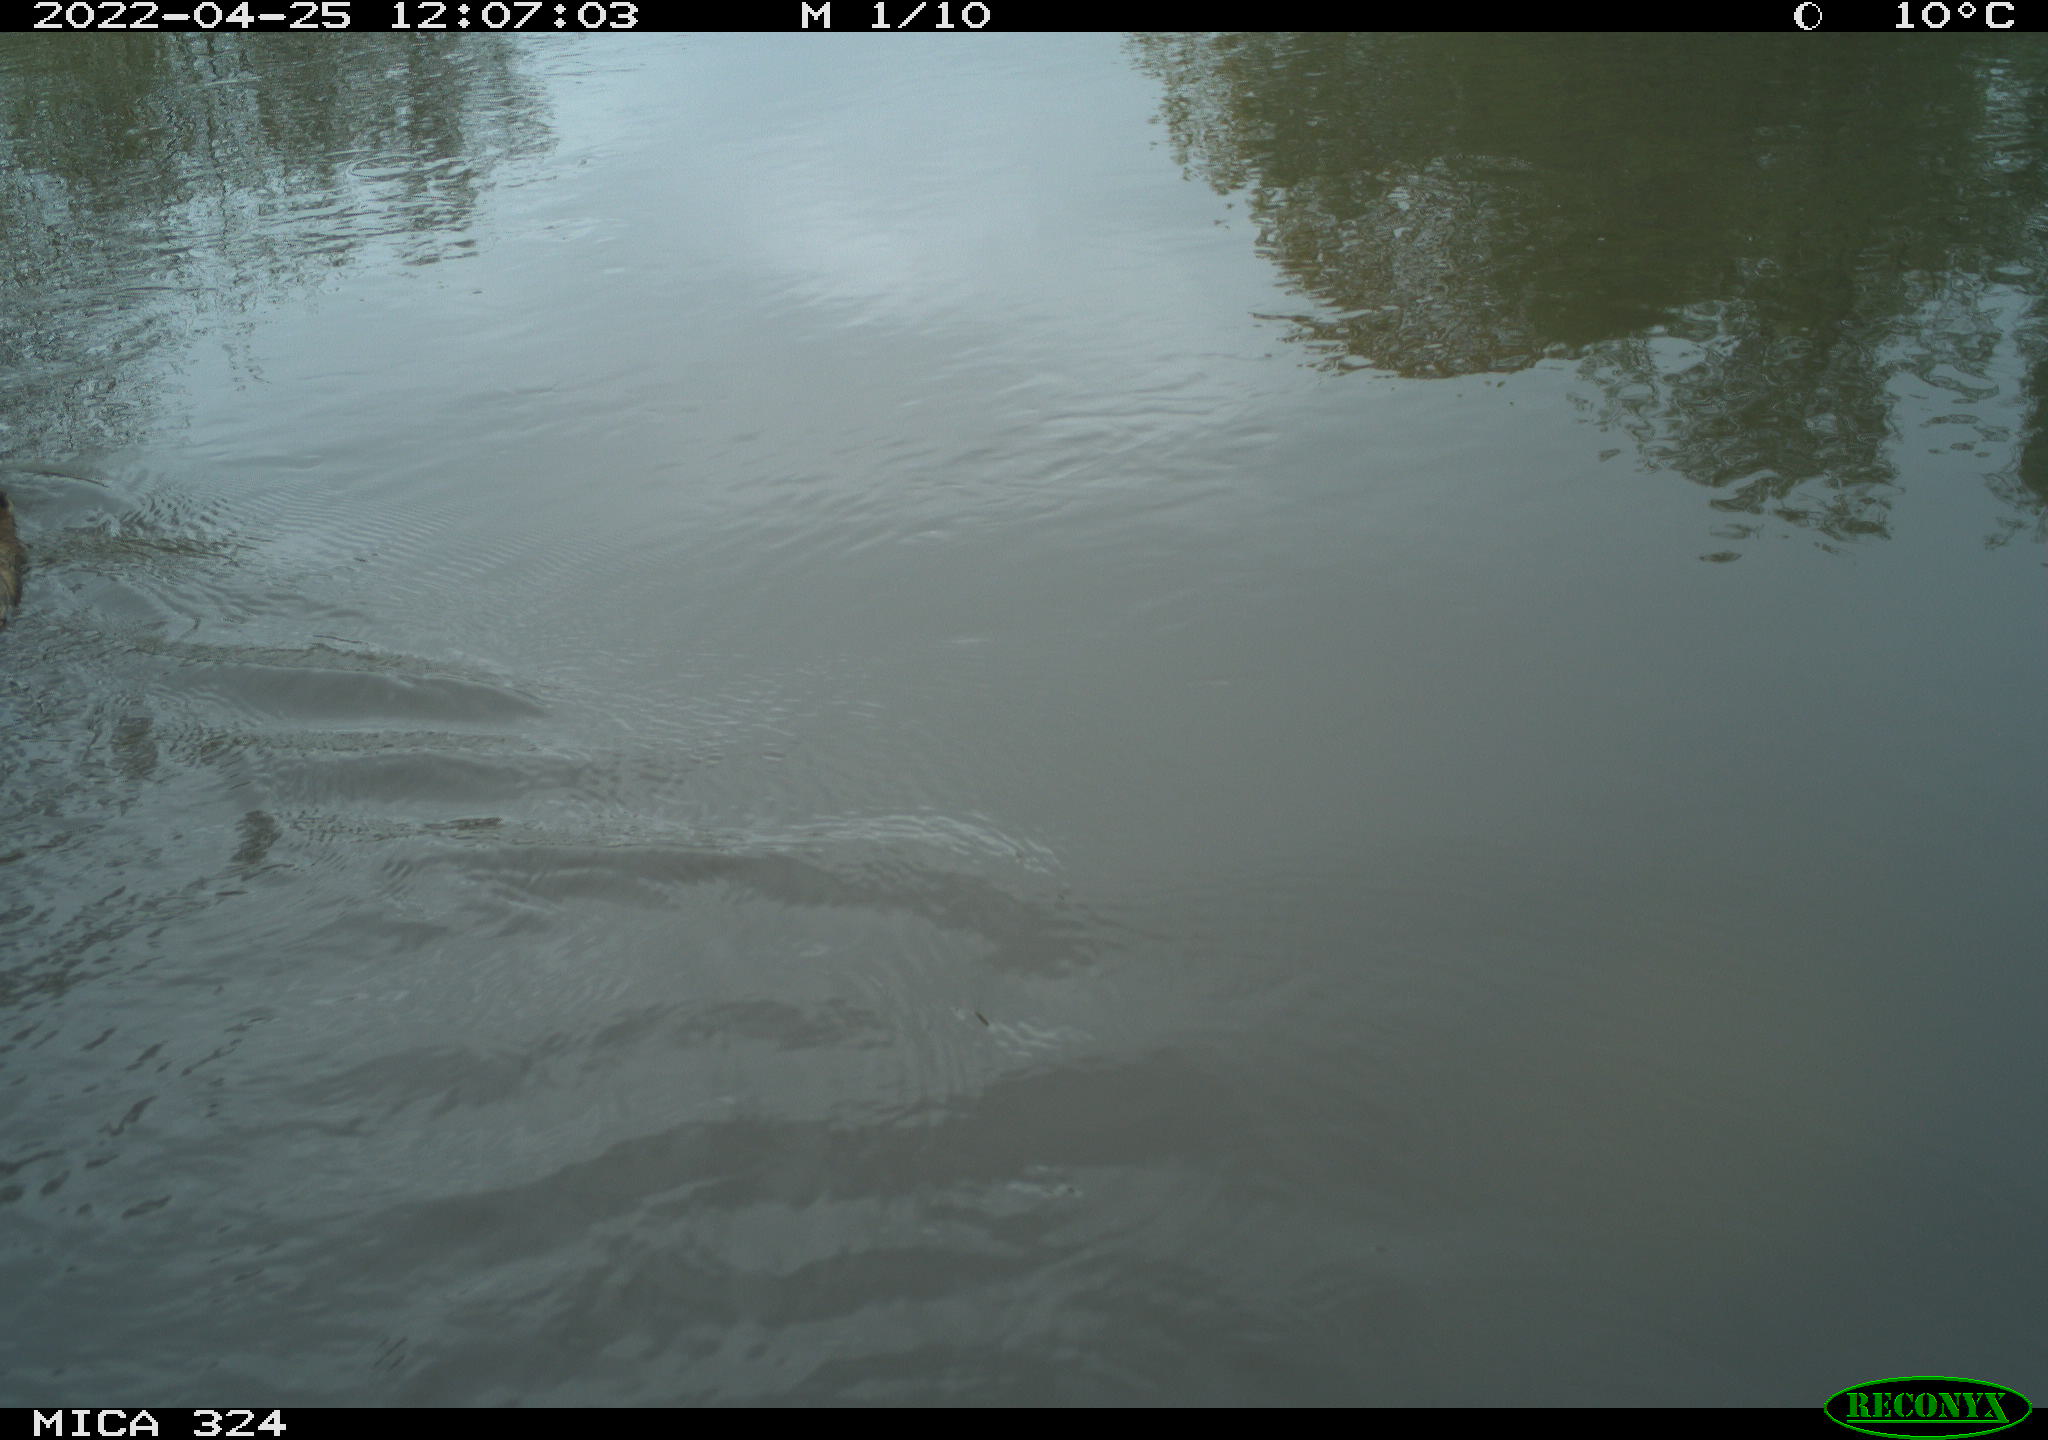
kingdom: Animalia
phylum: Chordata
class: Mammalia
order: Rodentia
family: Cricetidae
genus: Ondatra
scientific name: Ondatra zibethicus
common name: Muskrat
